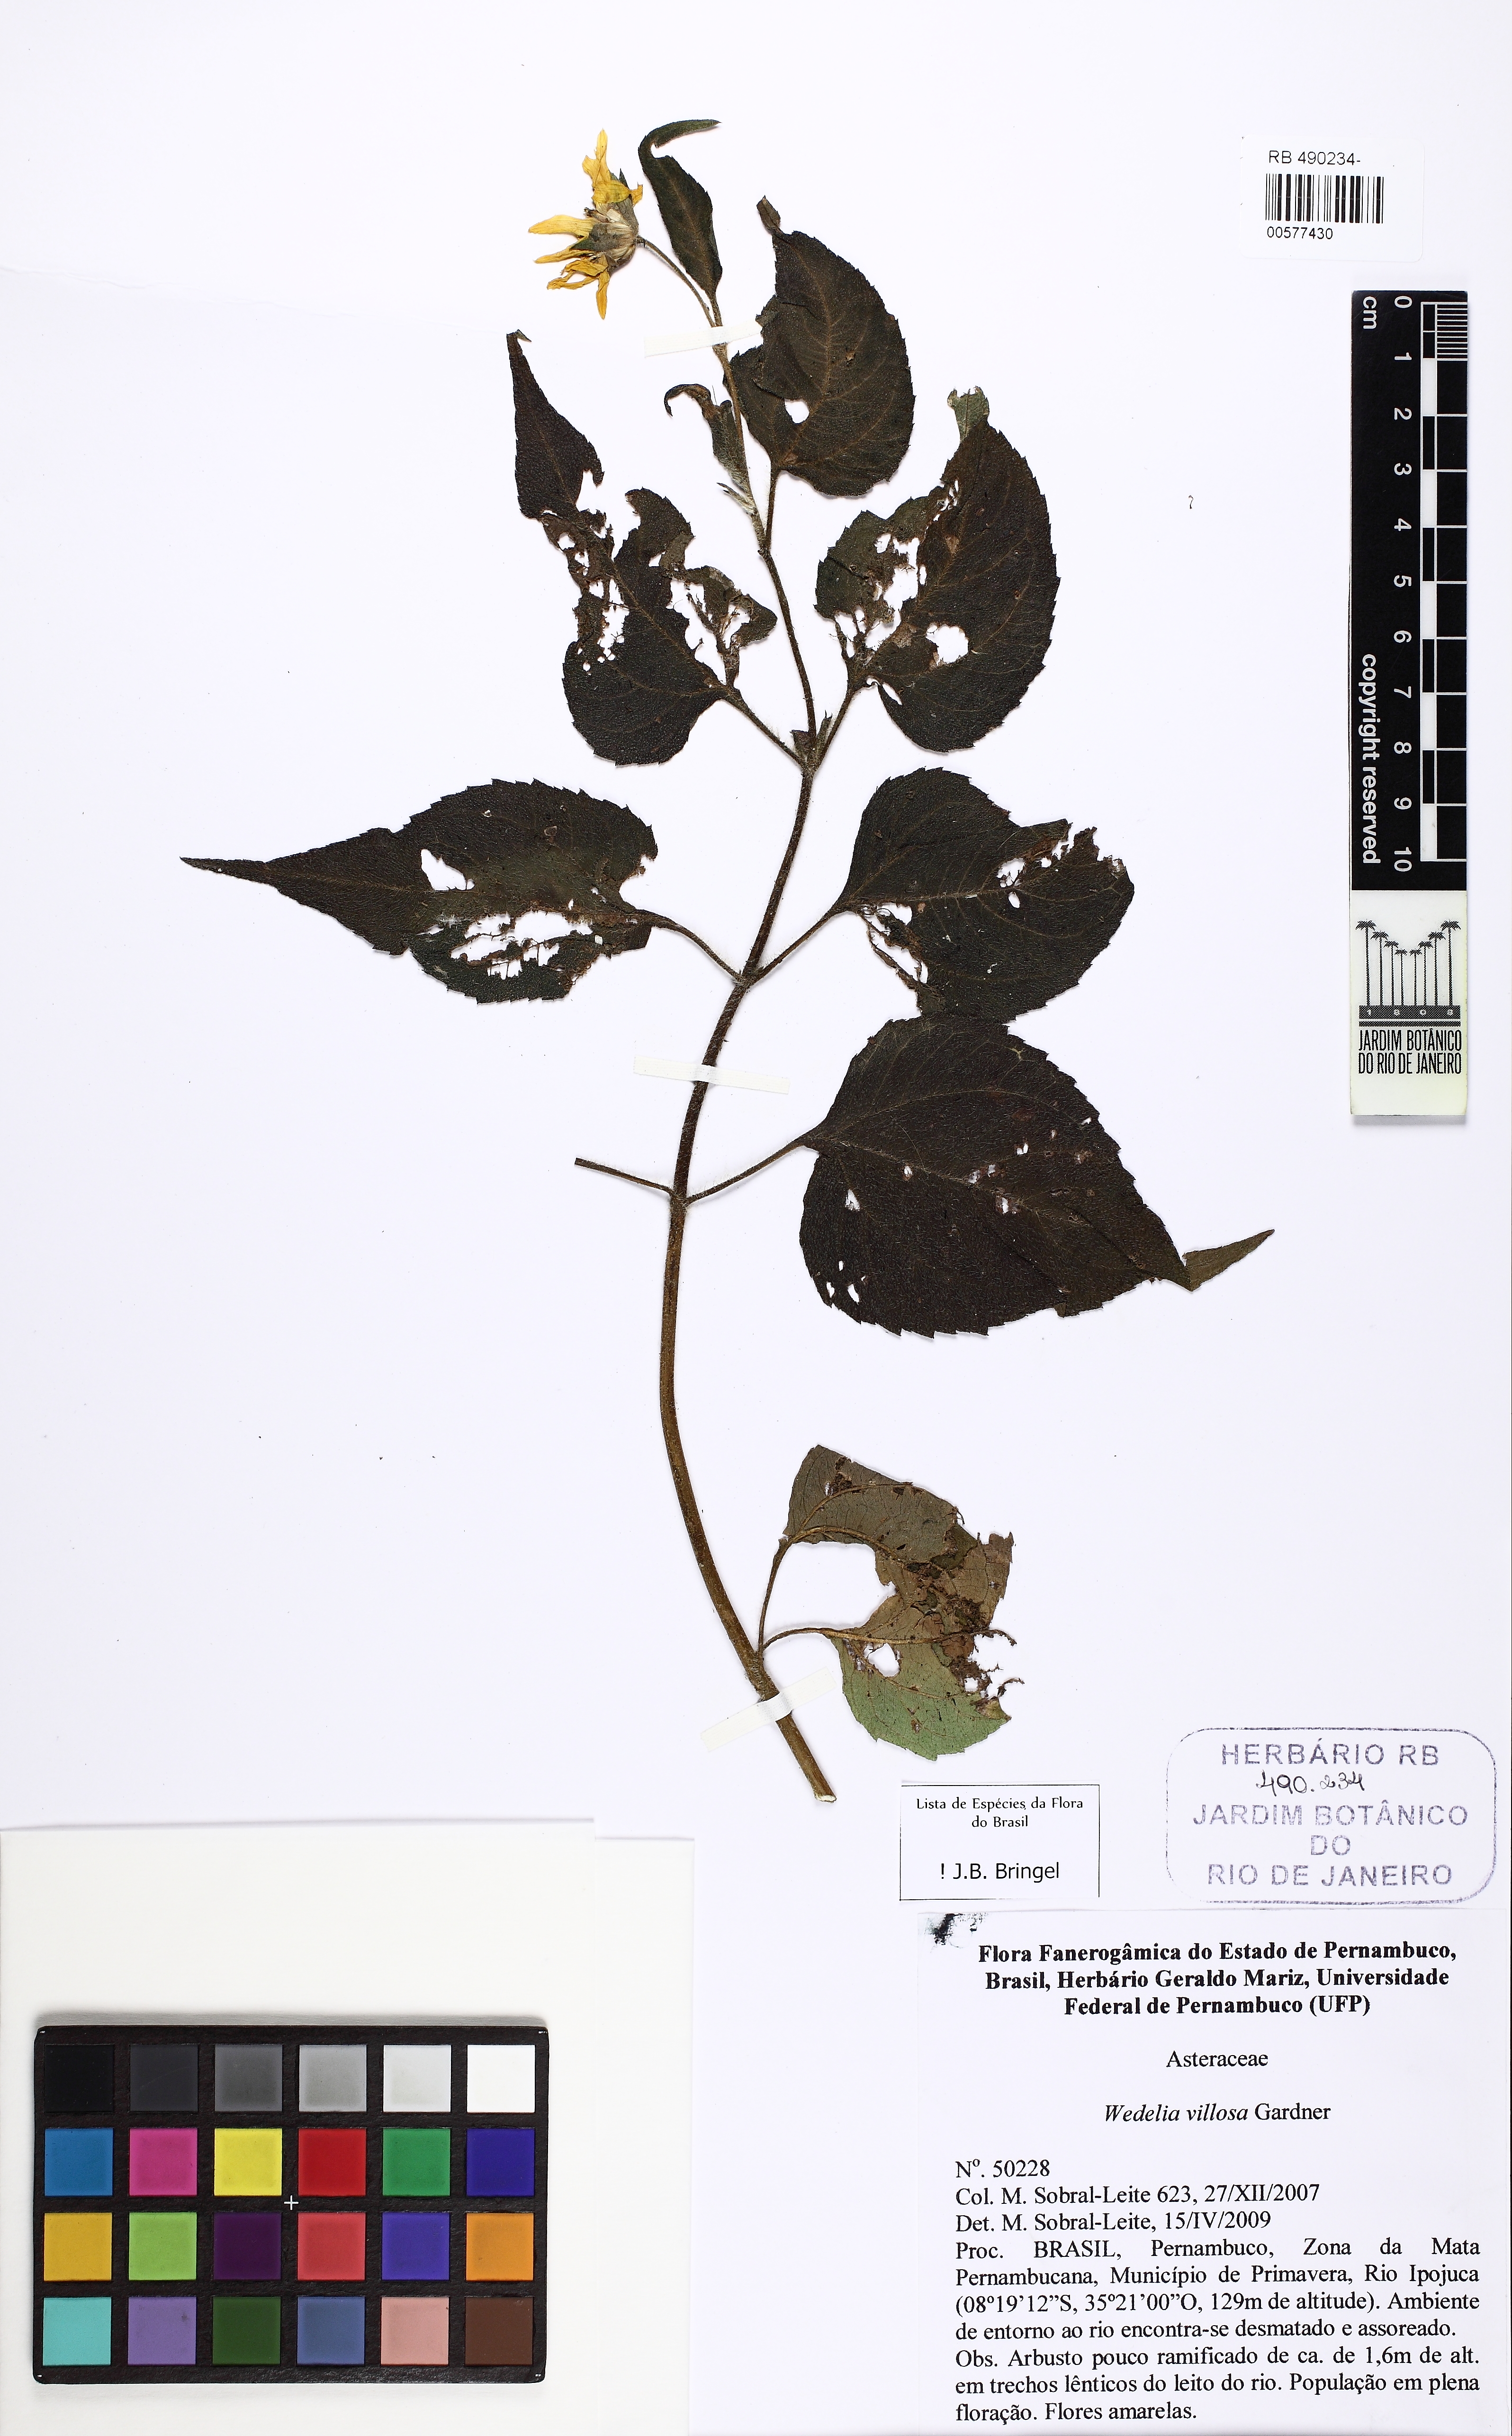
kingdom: Plantae
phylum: Tracheophyta
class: Magnoliopsida
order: Asterales
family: Asteraceae
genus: Wedelia
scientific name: Wedelia villosa
